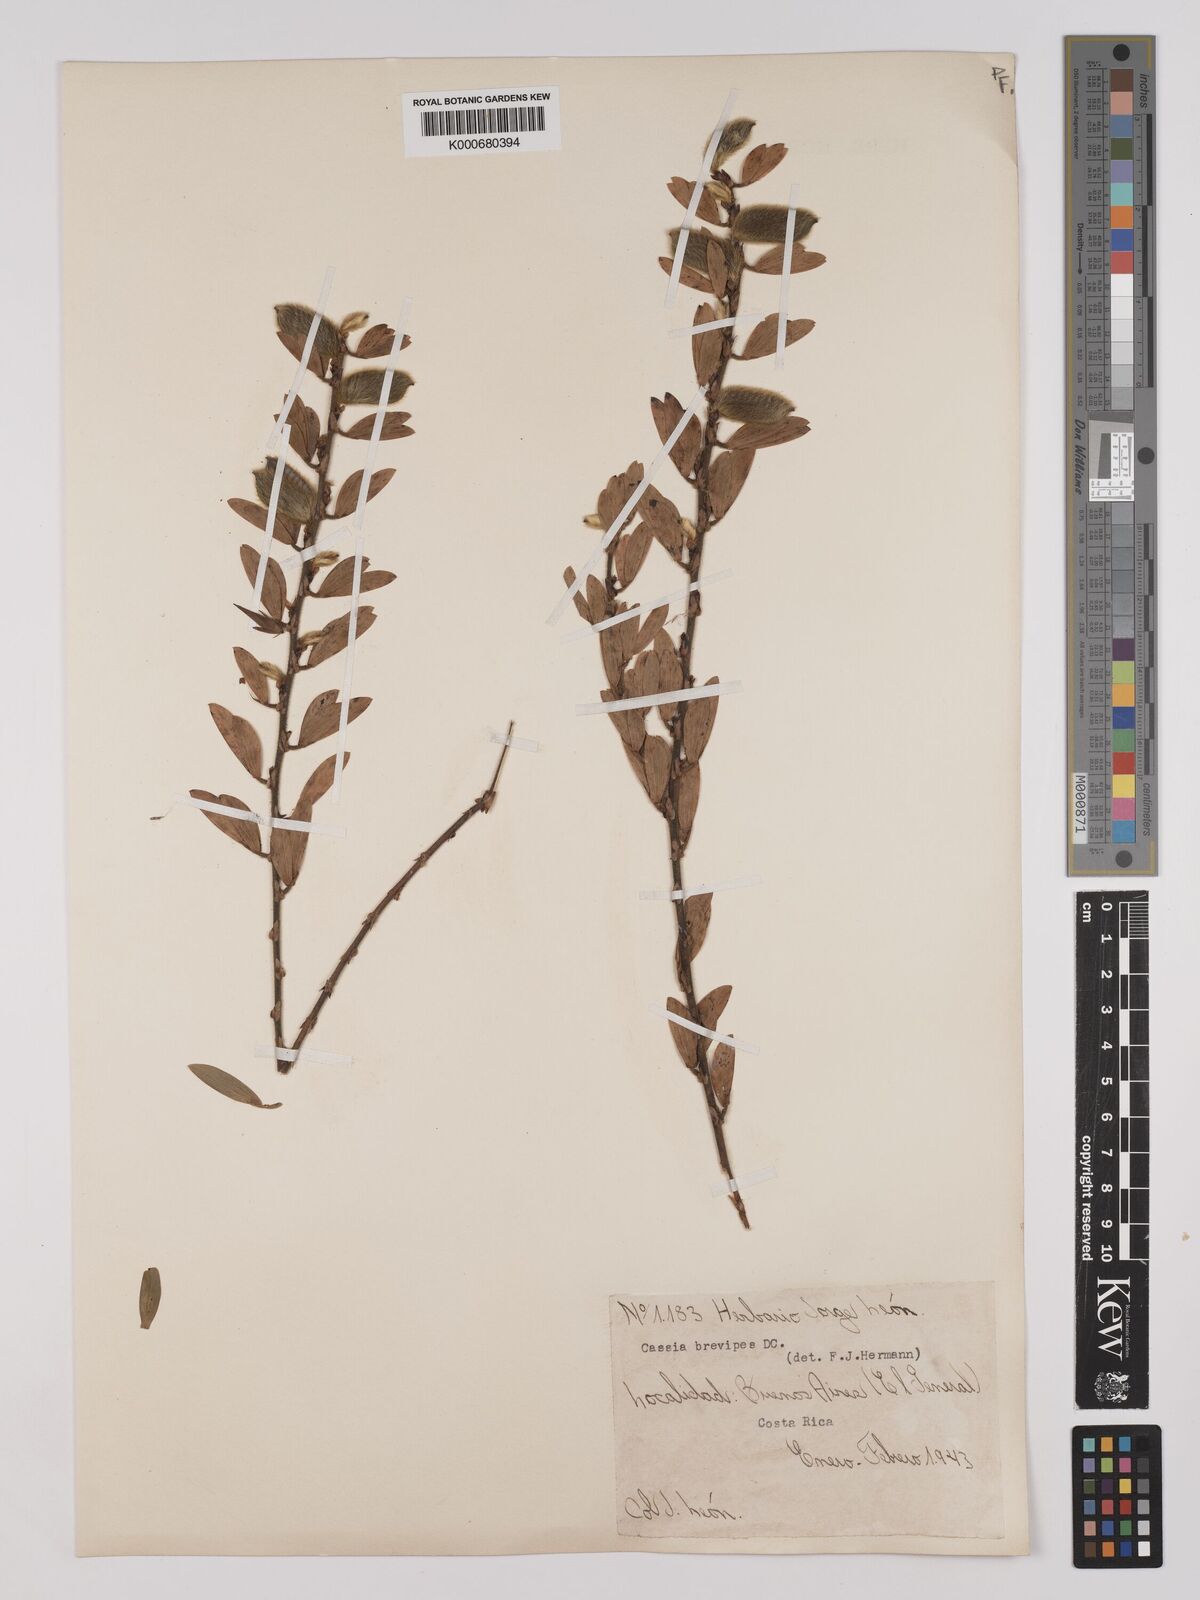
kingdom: Plantae
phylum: Tracheophyta
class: Magnoliopsida
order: Fabales
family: Fabaceae
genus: Chamaecrista
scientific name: Chamaecrista desvauxii
